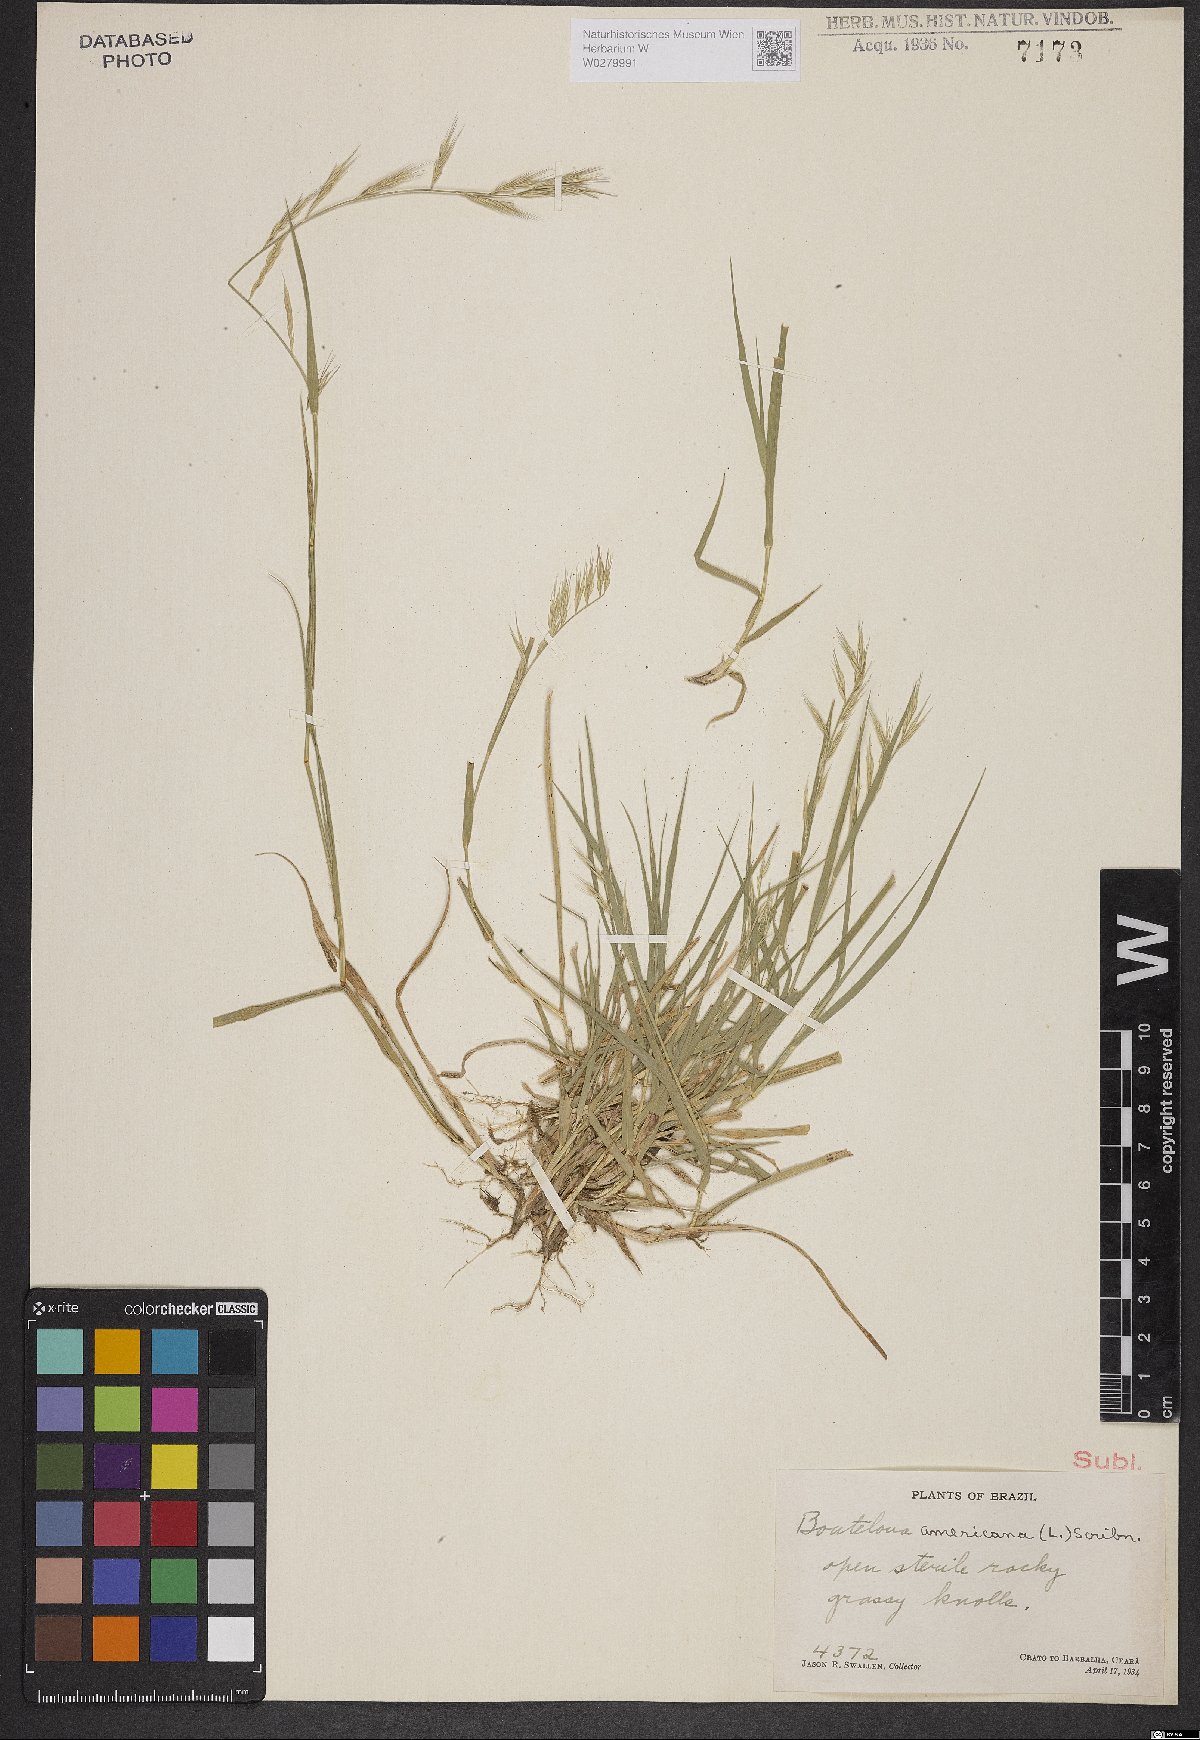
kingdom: Plantae
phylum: Tracheophyta
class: Liliopsida
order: Poales
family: Poaceae
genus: Bouteloua
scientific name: Bouteloua americana
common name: Mule grass
